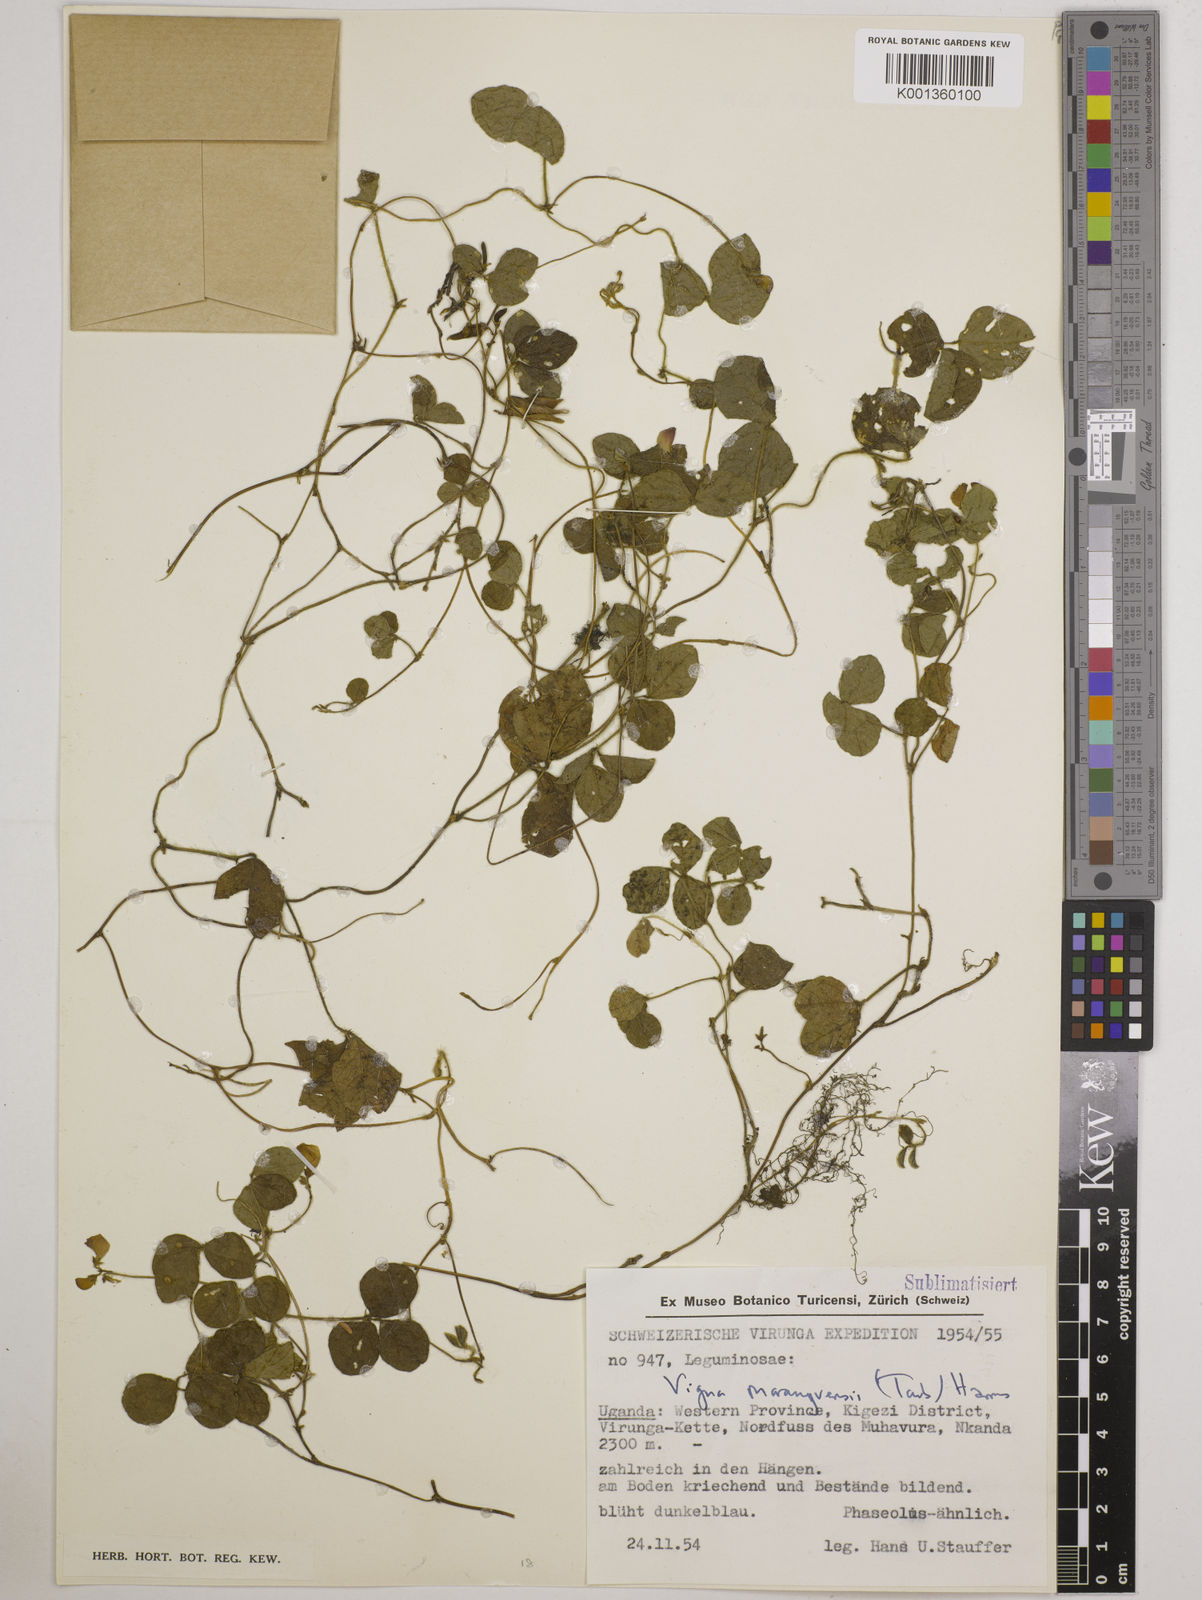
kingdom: Plantae
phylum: Tracheophyta
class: Magnoliopsida
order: Fabales
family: Fabaceae
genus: Vigna
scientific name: Vigna parkeri
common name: Creeping vigna
